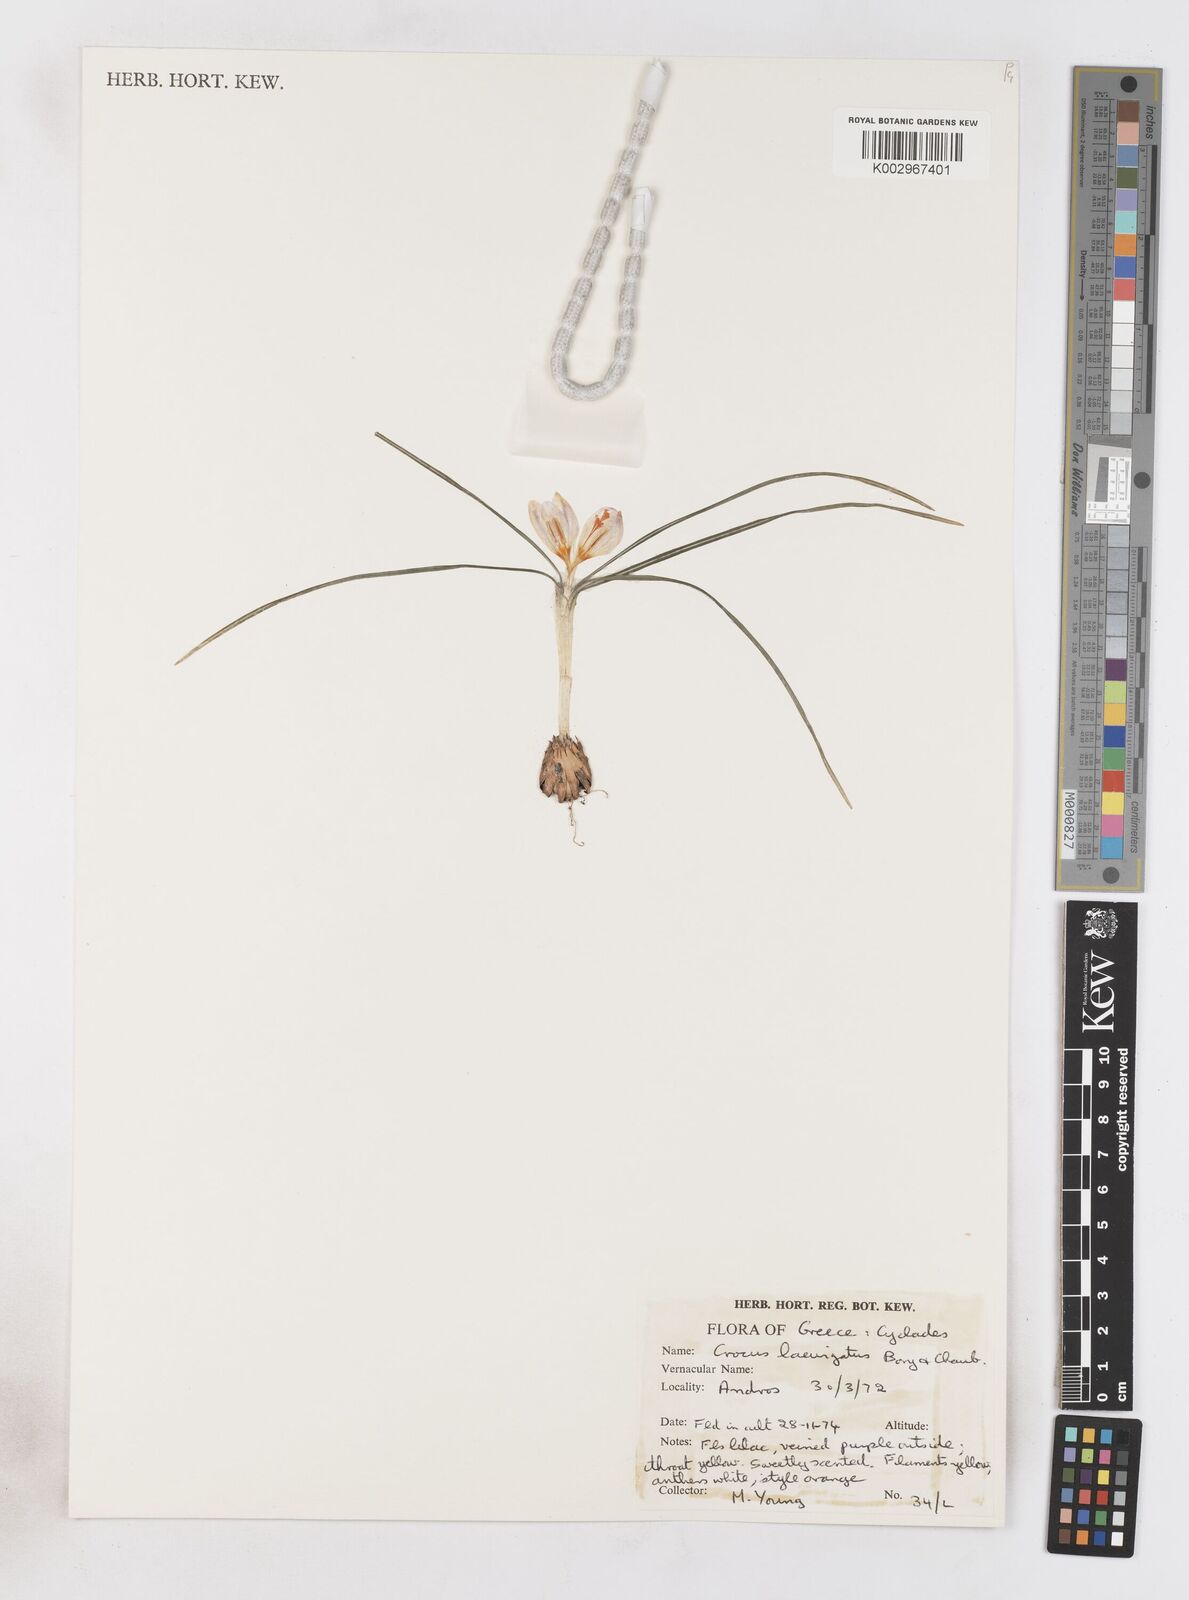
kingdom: Plantae
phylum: Tracheophyta
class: Liliopsida
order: Asparagales
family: Iridaceae
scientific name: Iridaceae
